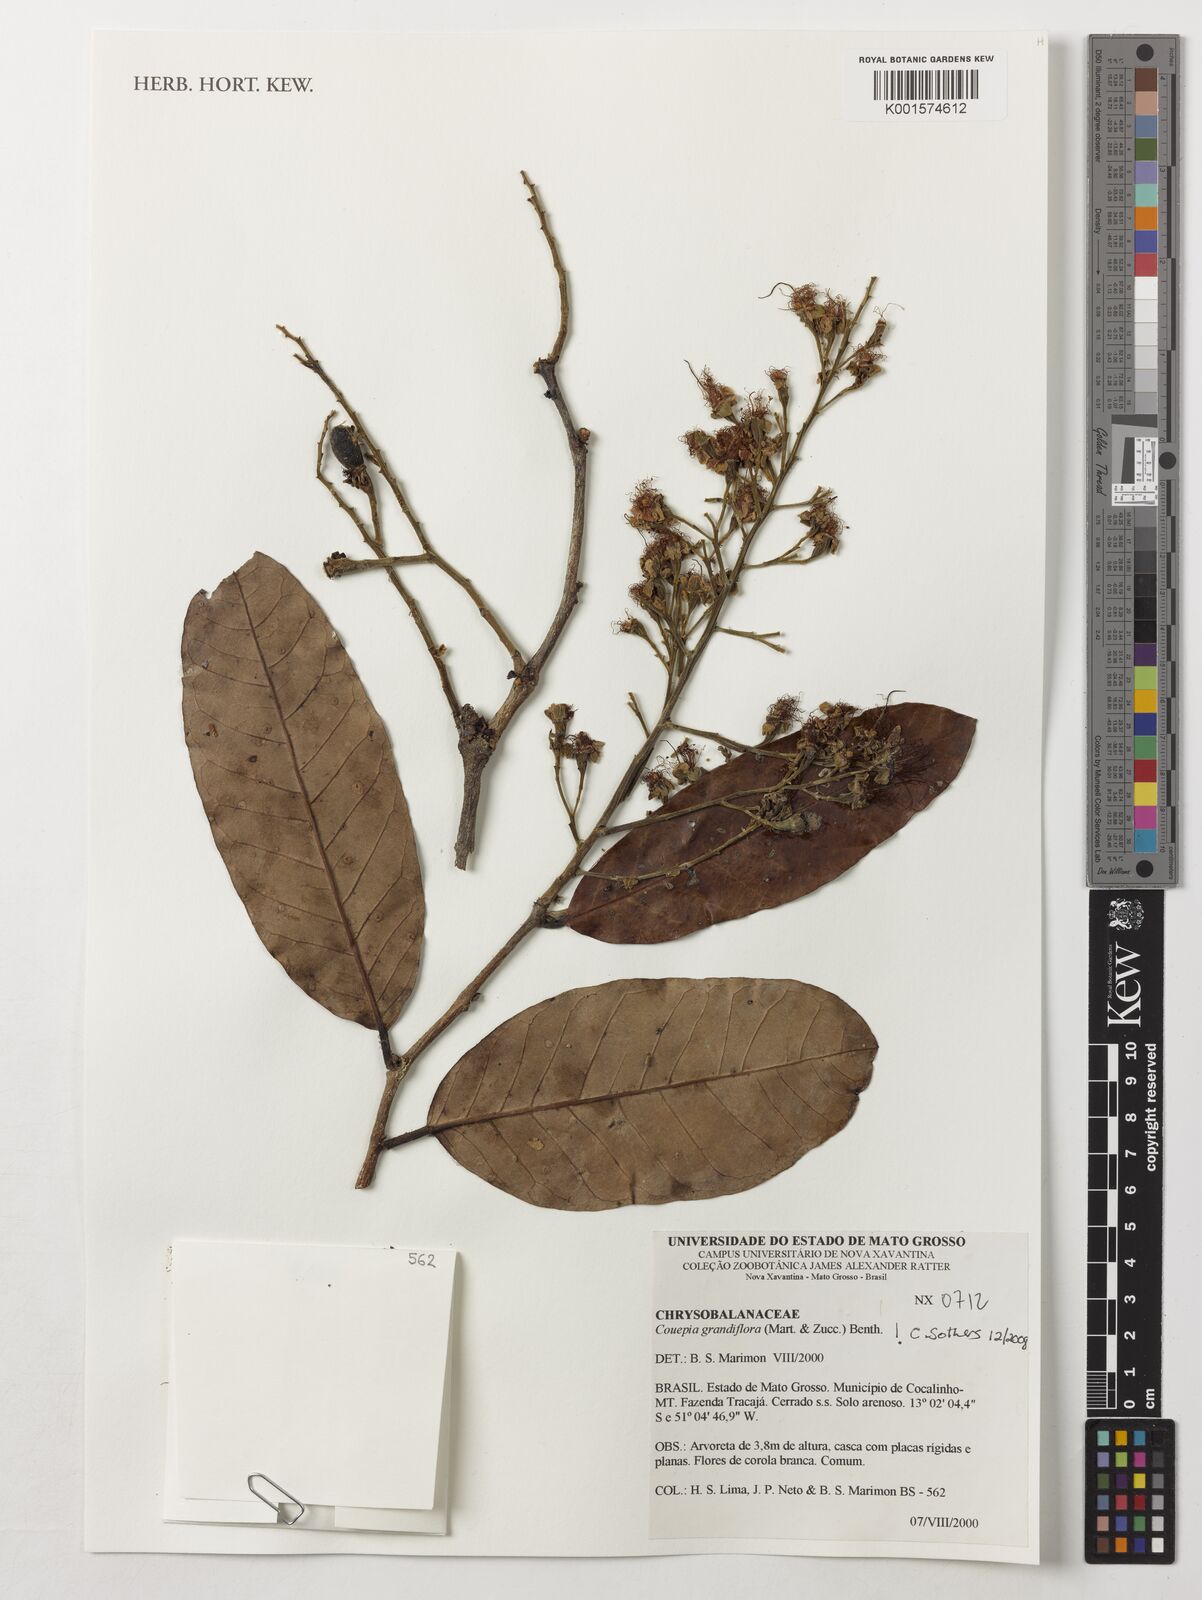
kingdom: Plantae
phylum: Tracheophyta
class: Magnoliopsida
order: Malpighiales
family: Chrysobalanaceae
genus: Couepia
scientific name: Couepia grandiflora
